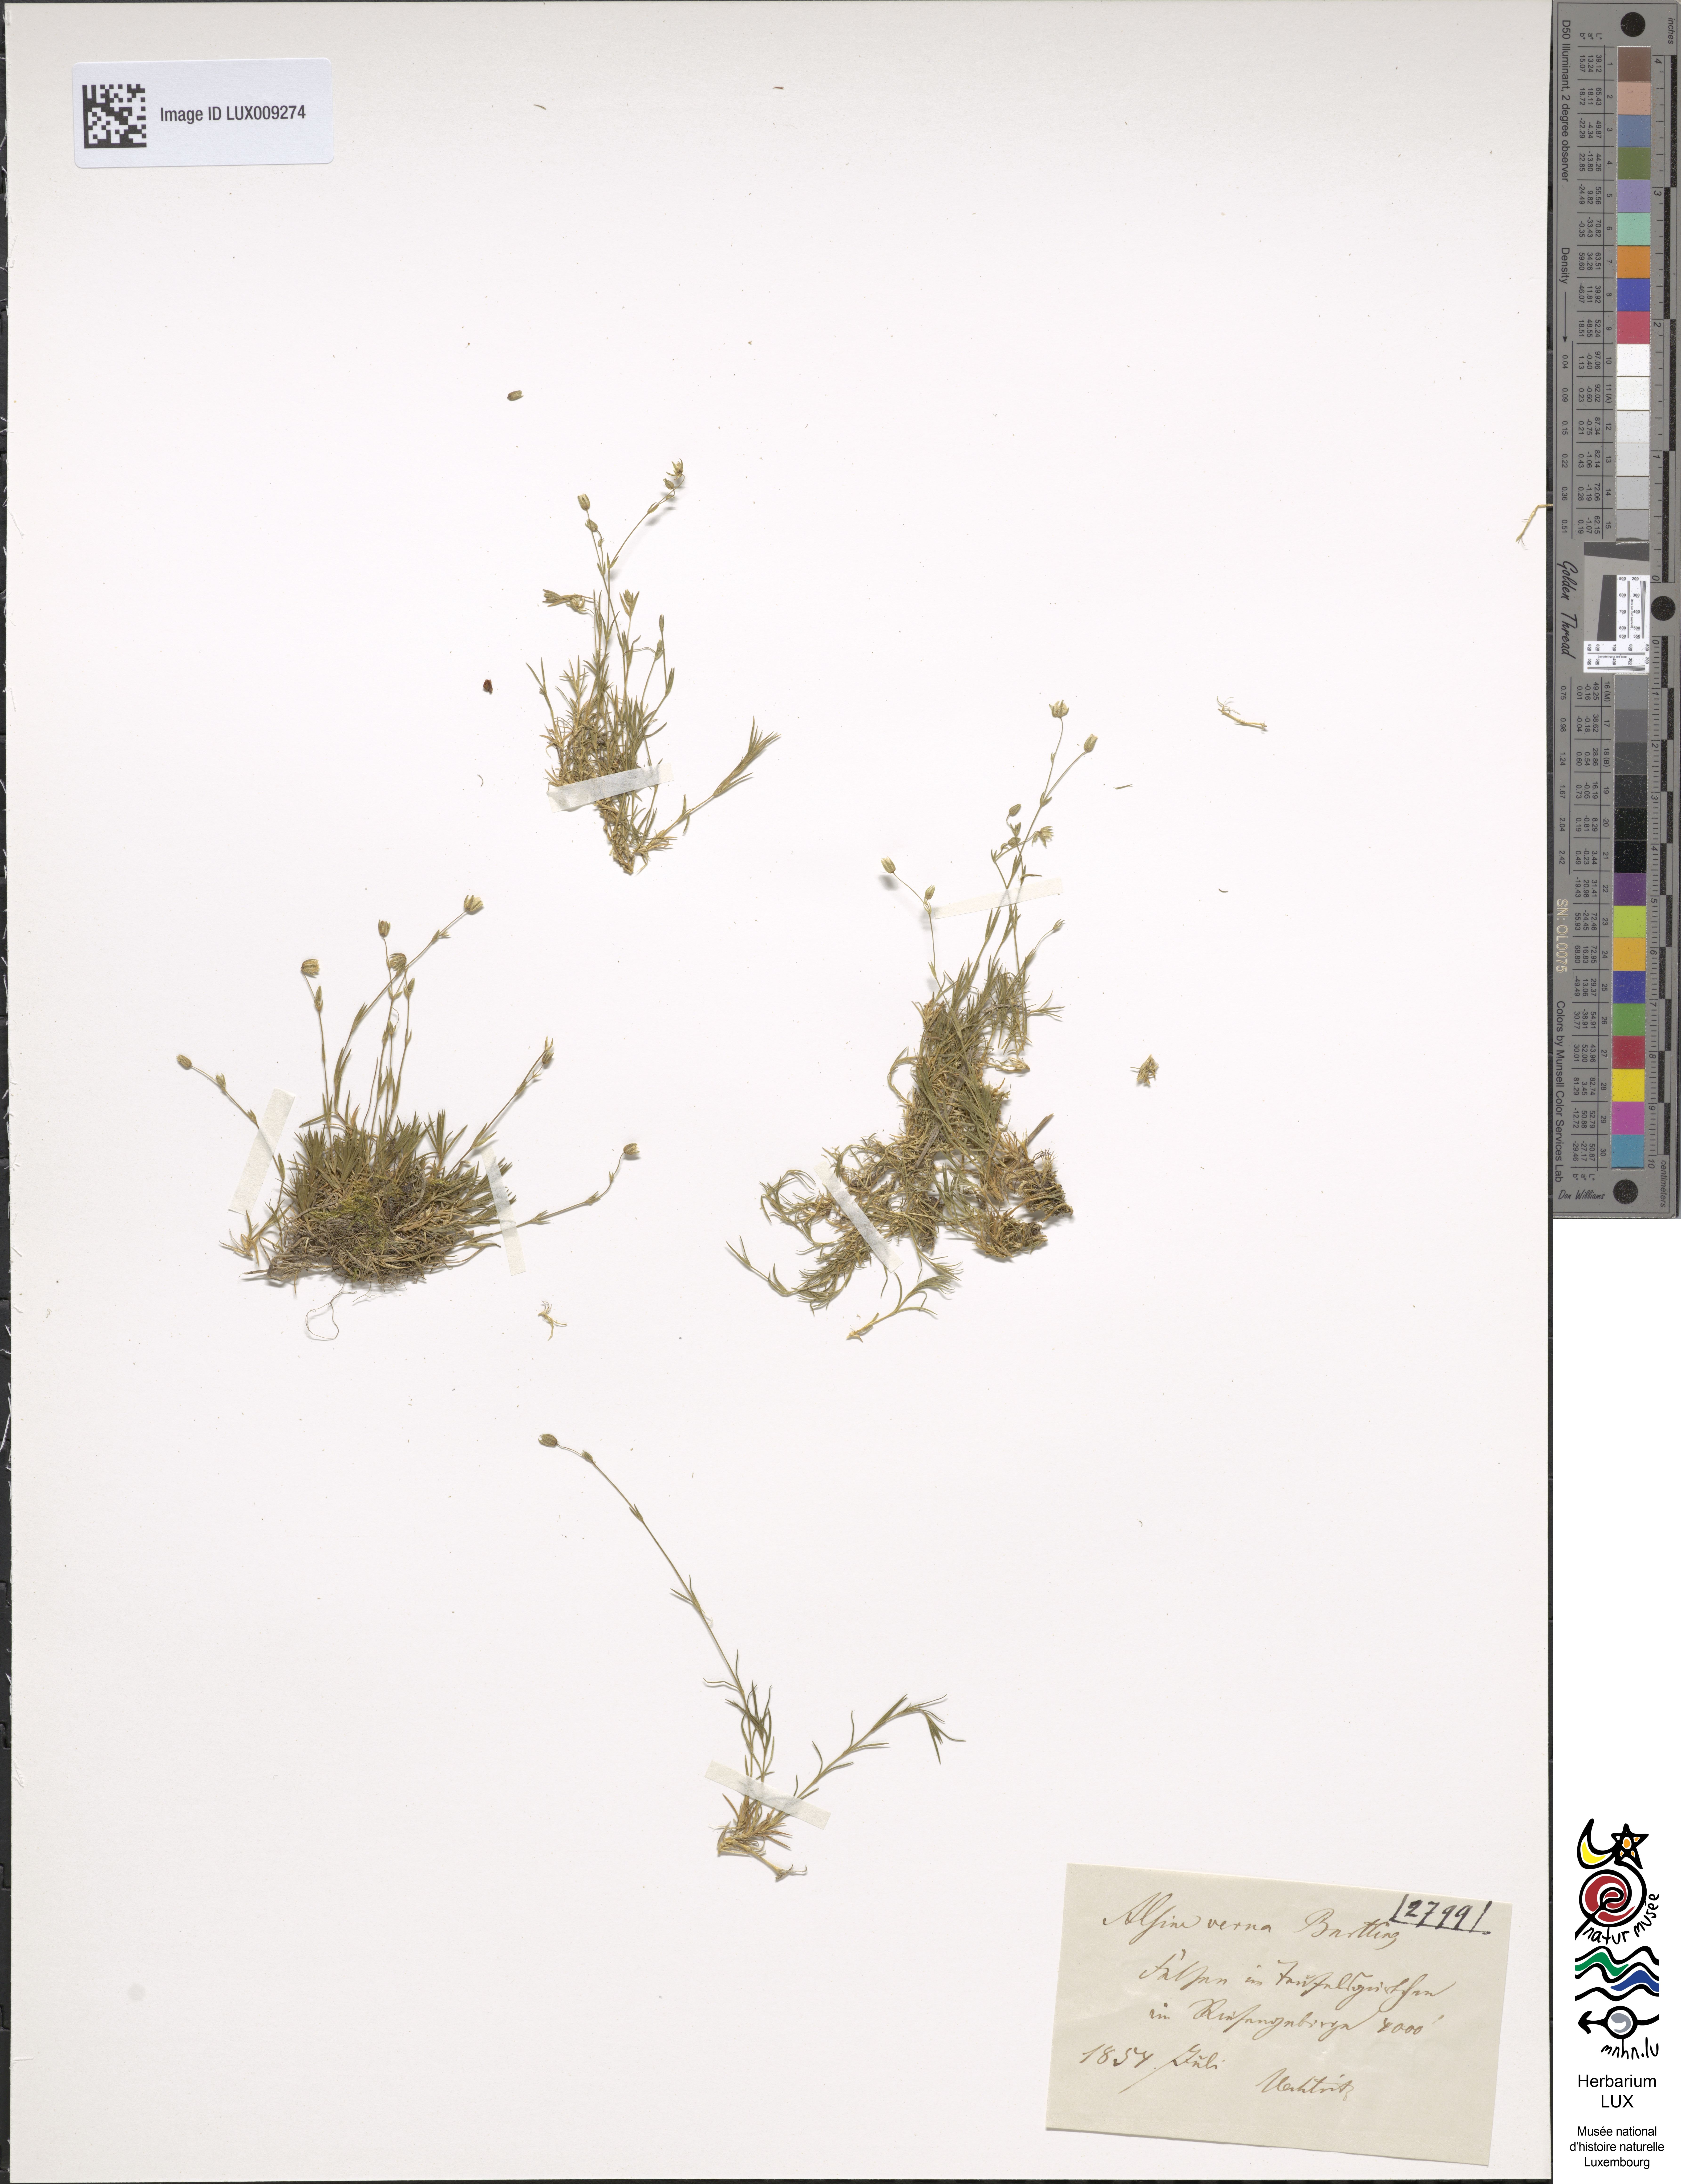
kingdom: Plantae
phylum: Tracheophyta
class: Magnoliopsida
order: Caryophyllales
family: Caryophyllaceae
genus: Sabulina
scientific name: Sabulina verna
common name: Spring sandwort
